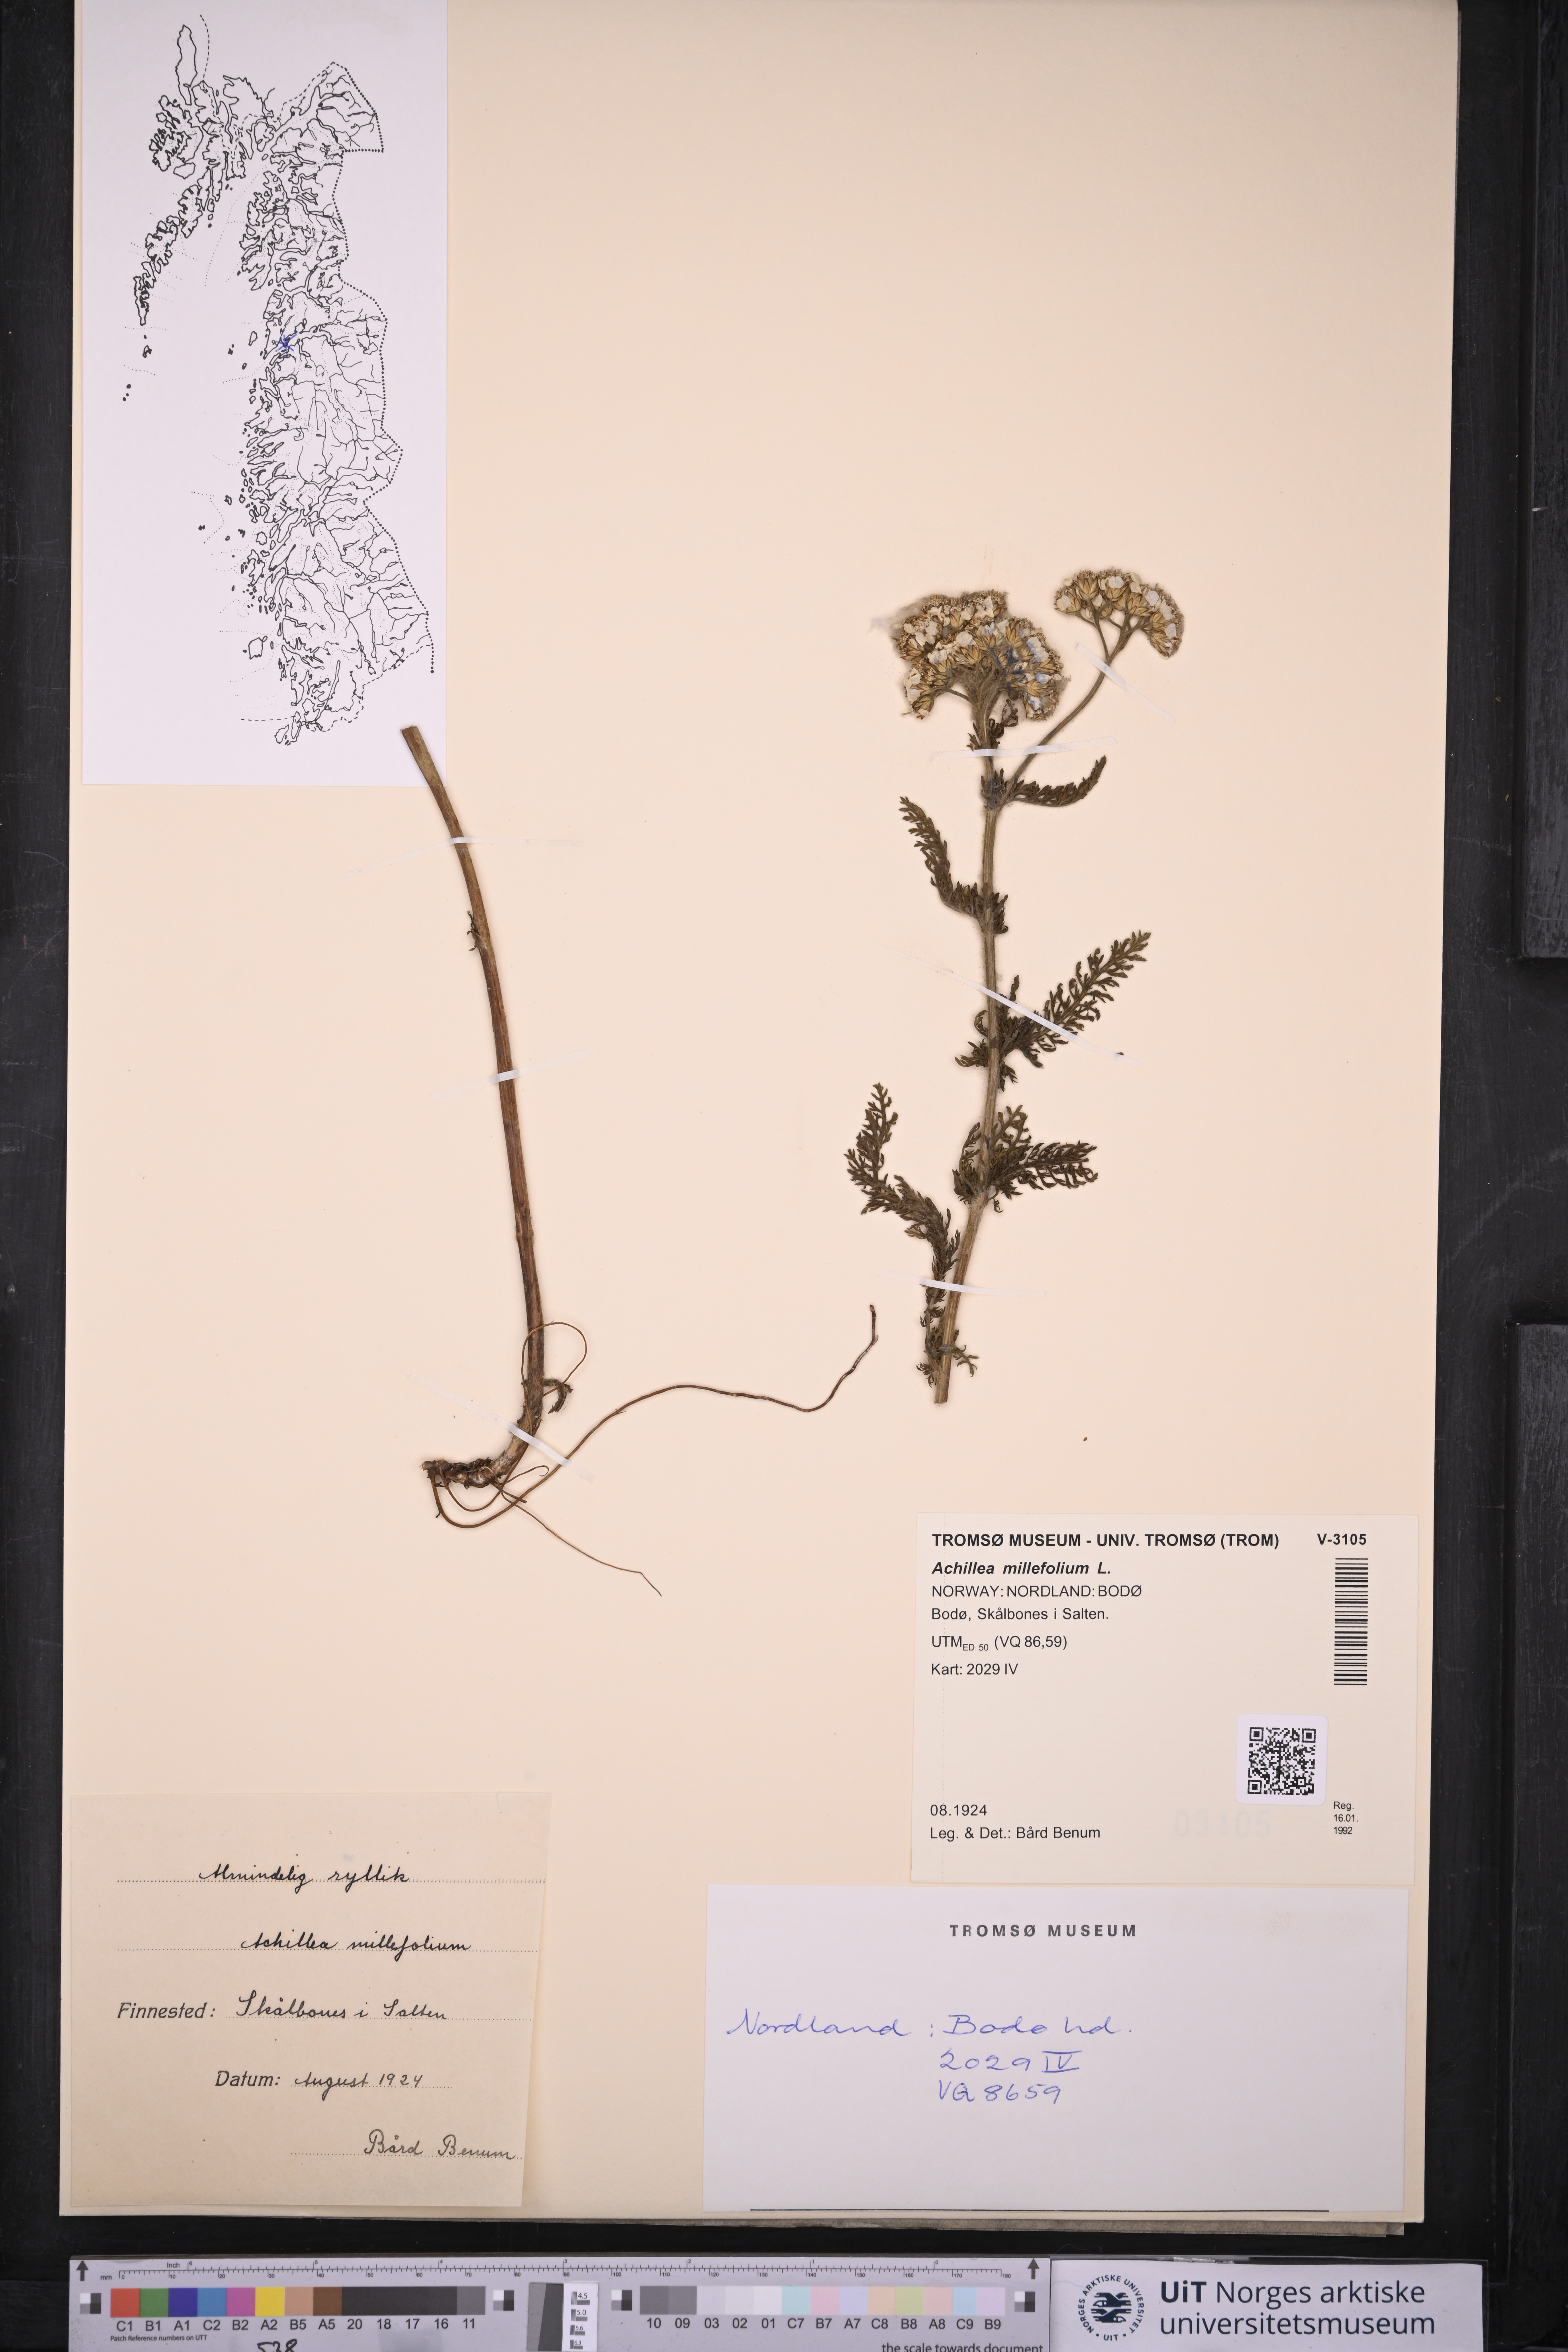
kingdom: Plantae
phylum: Tracheophyta
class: Magnoliopsida
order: Asterales
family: Asteraceae
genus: Achillea
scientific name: Achillea millefolium
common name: Yarrow
